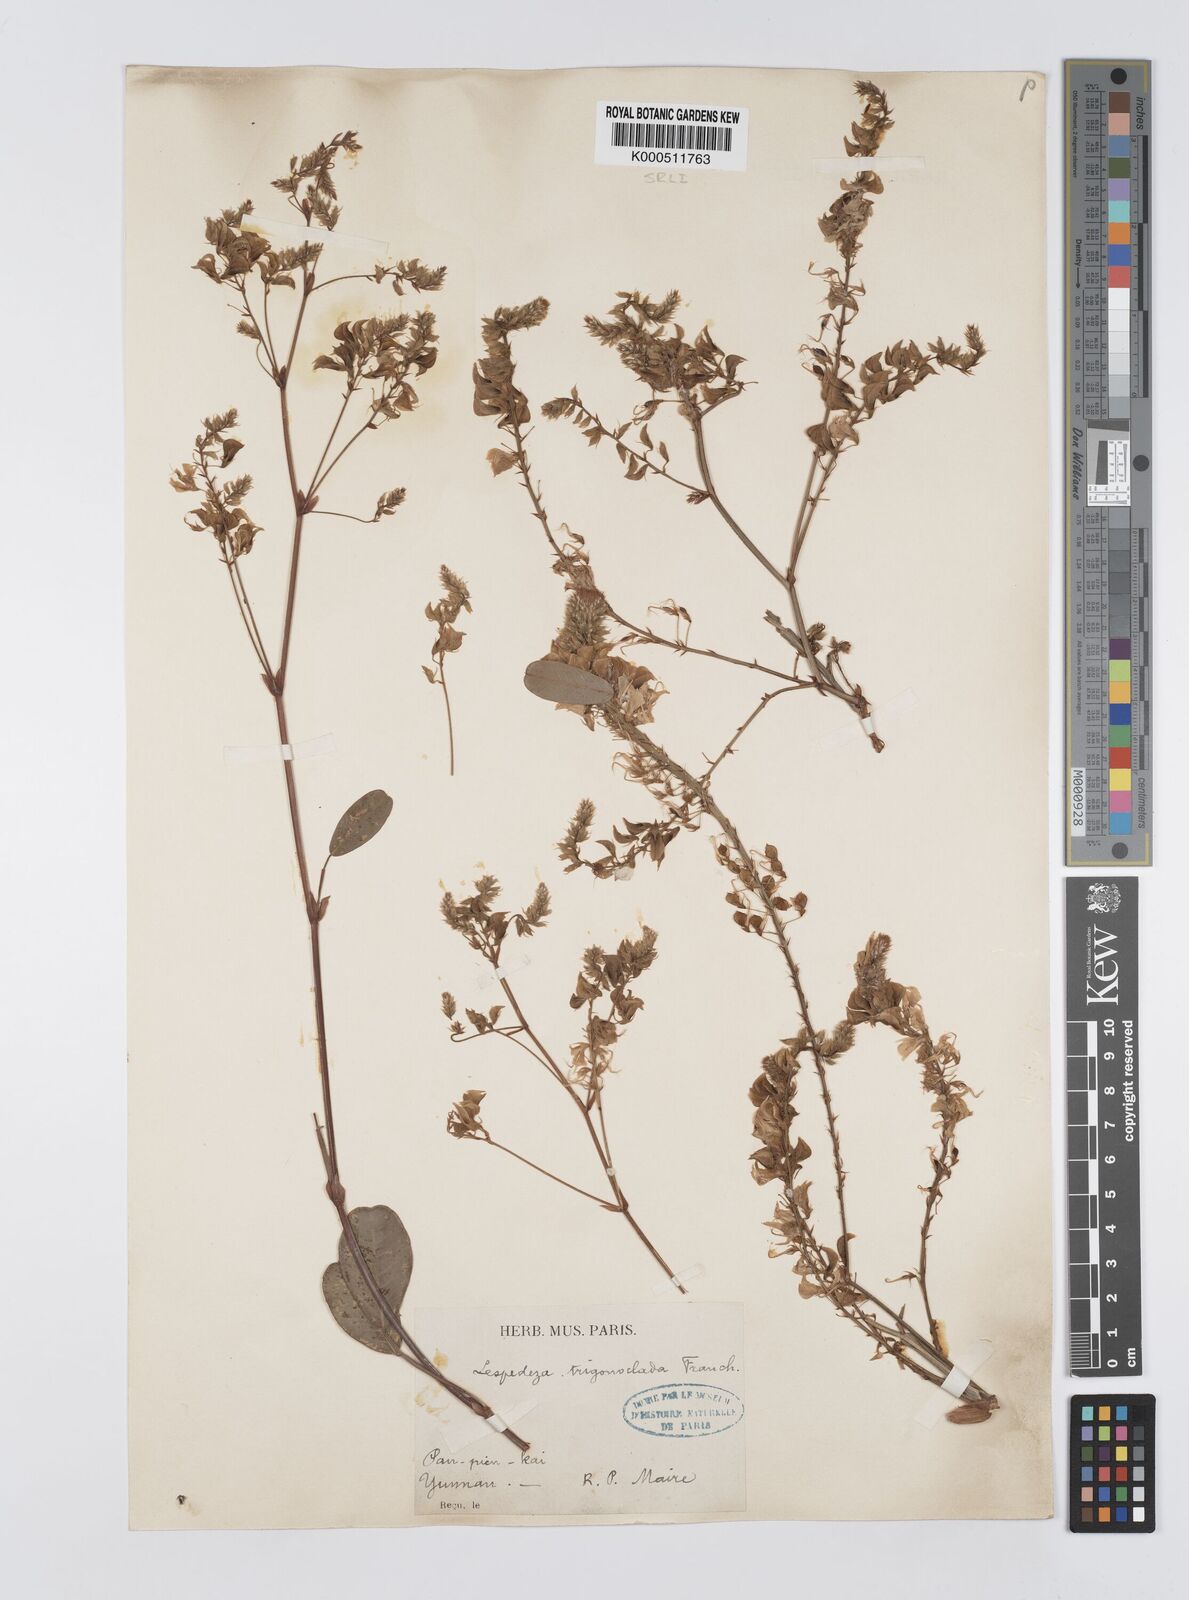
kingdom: Plantae
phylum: Tracheophyta
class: Magnoliopsida
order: Fabales
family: Fabaceae
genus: Campylotropis
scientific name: Campylotropis trigonoclada
